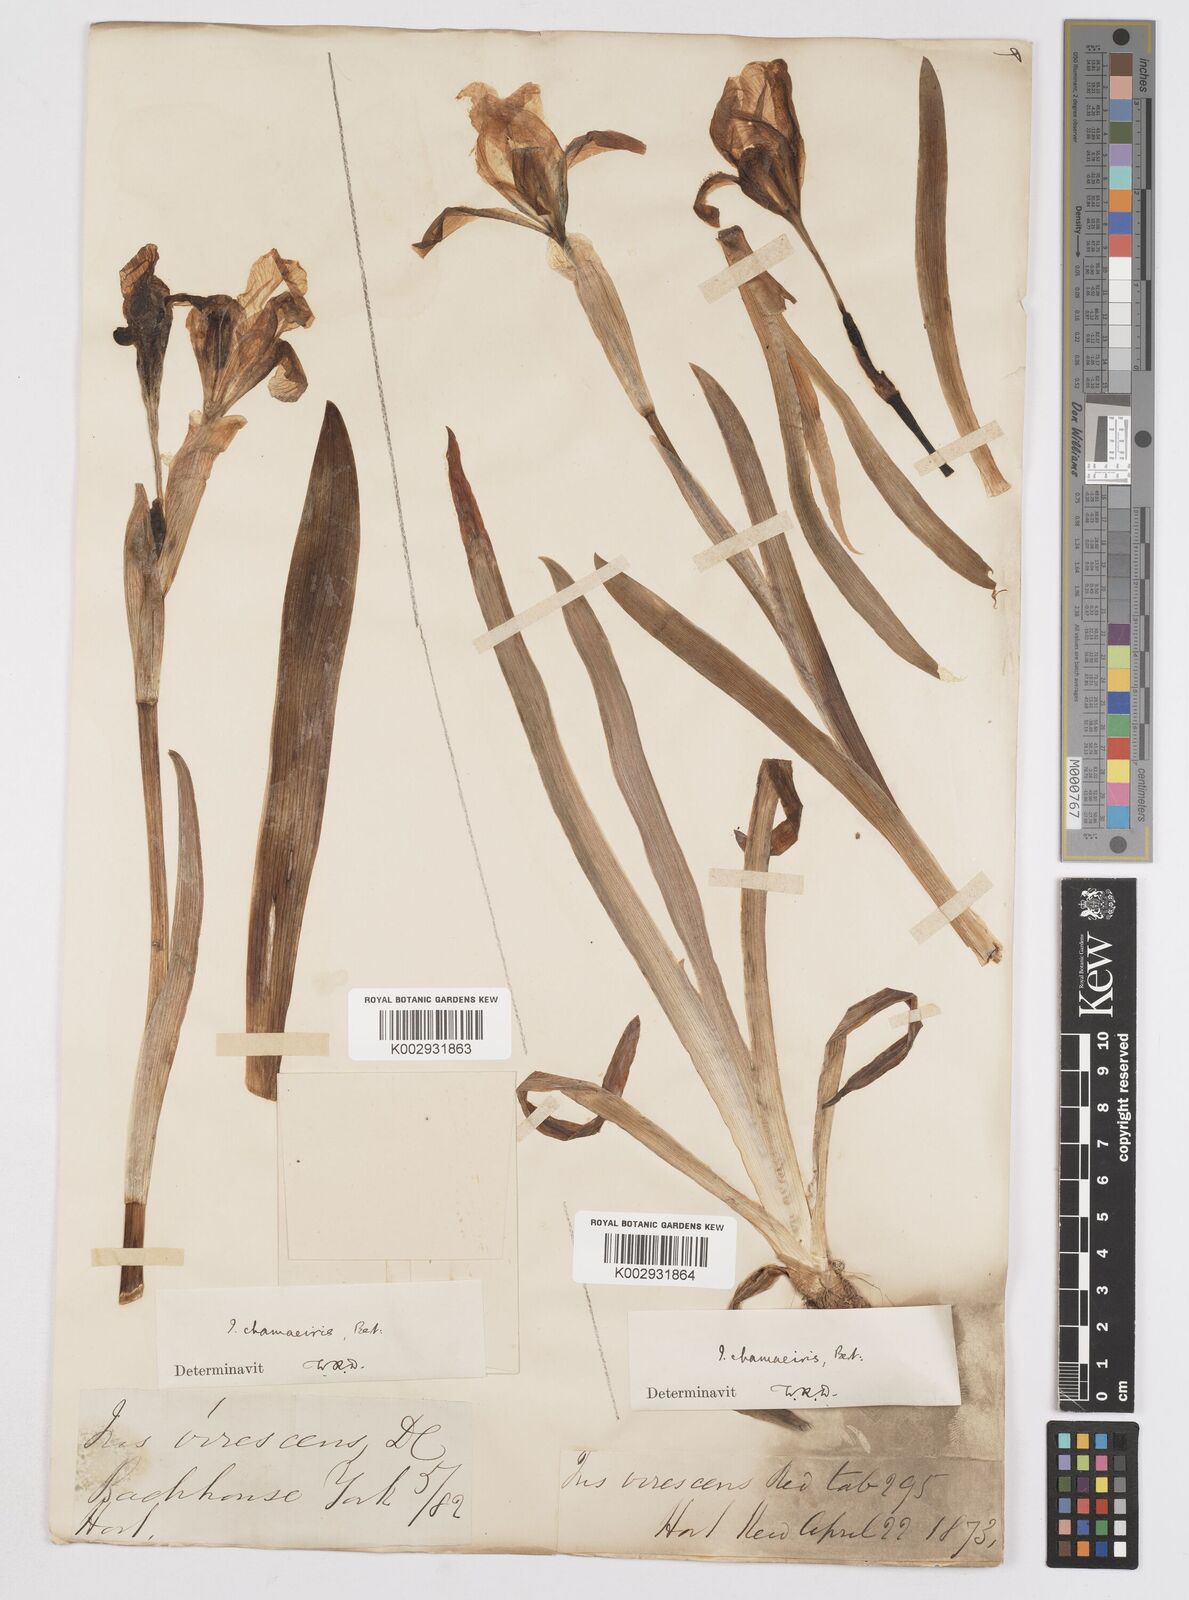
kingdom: Plantae
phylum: Tracheophyta
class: Liliopsida
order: Asparagales
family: Iridaceae
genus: Iris
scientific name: Iris lutescens
